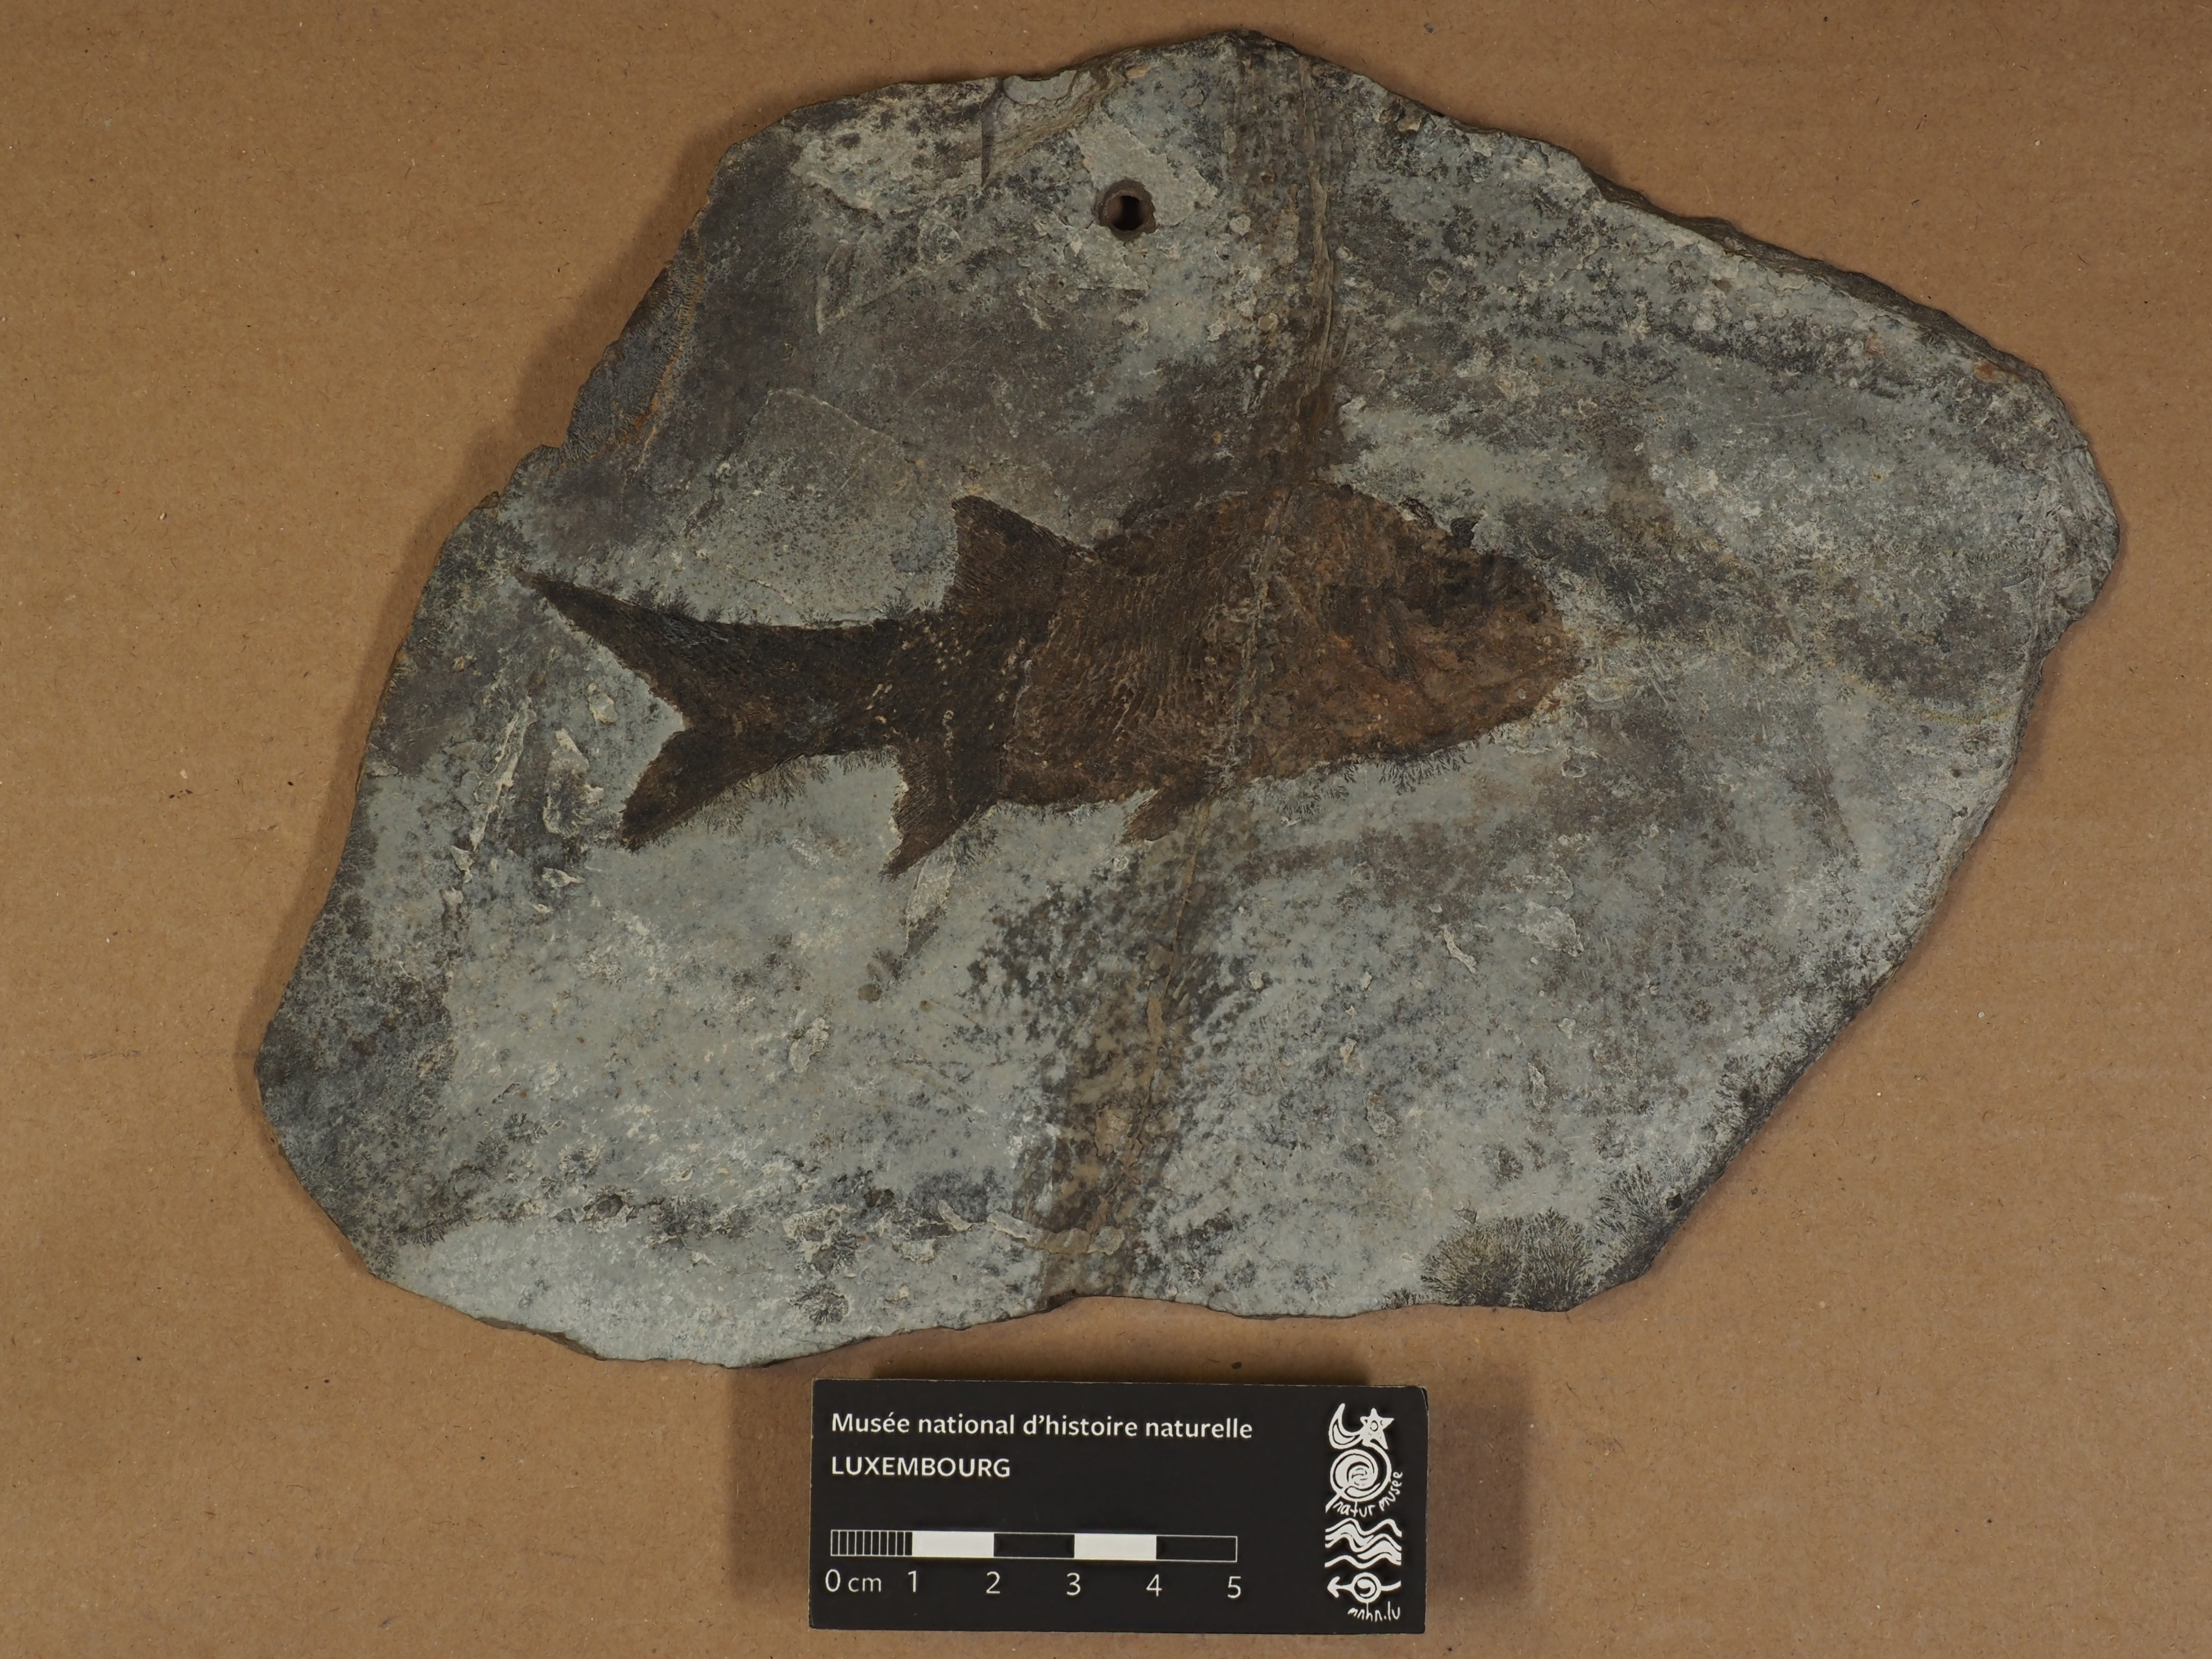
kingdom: Animalia
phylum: Chordata
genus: Paramblypterus
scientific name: Paramblypterus
